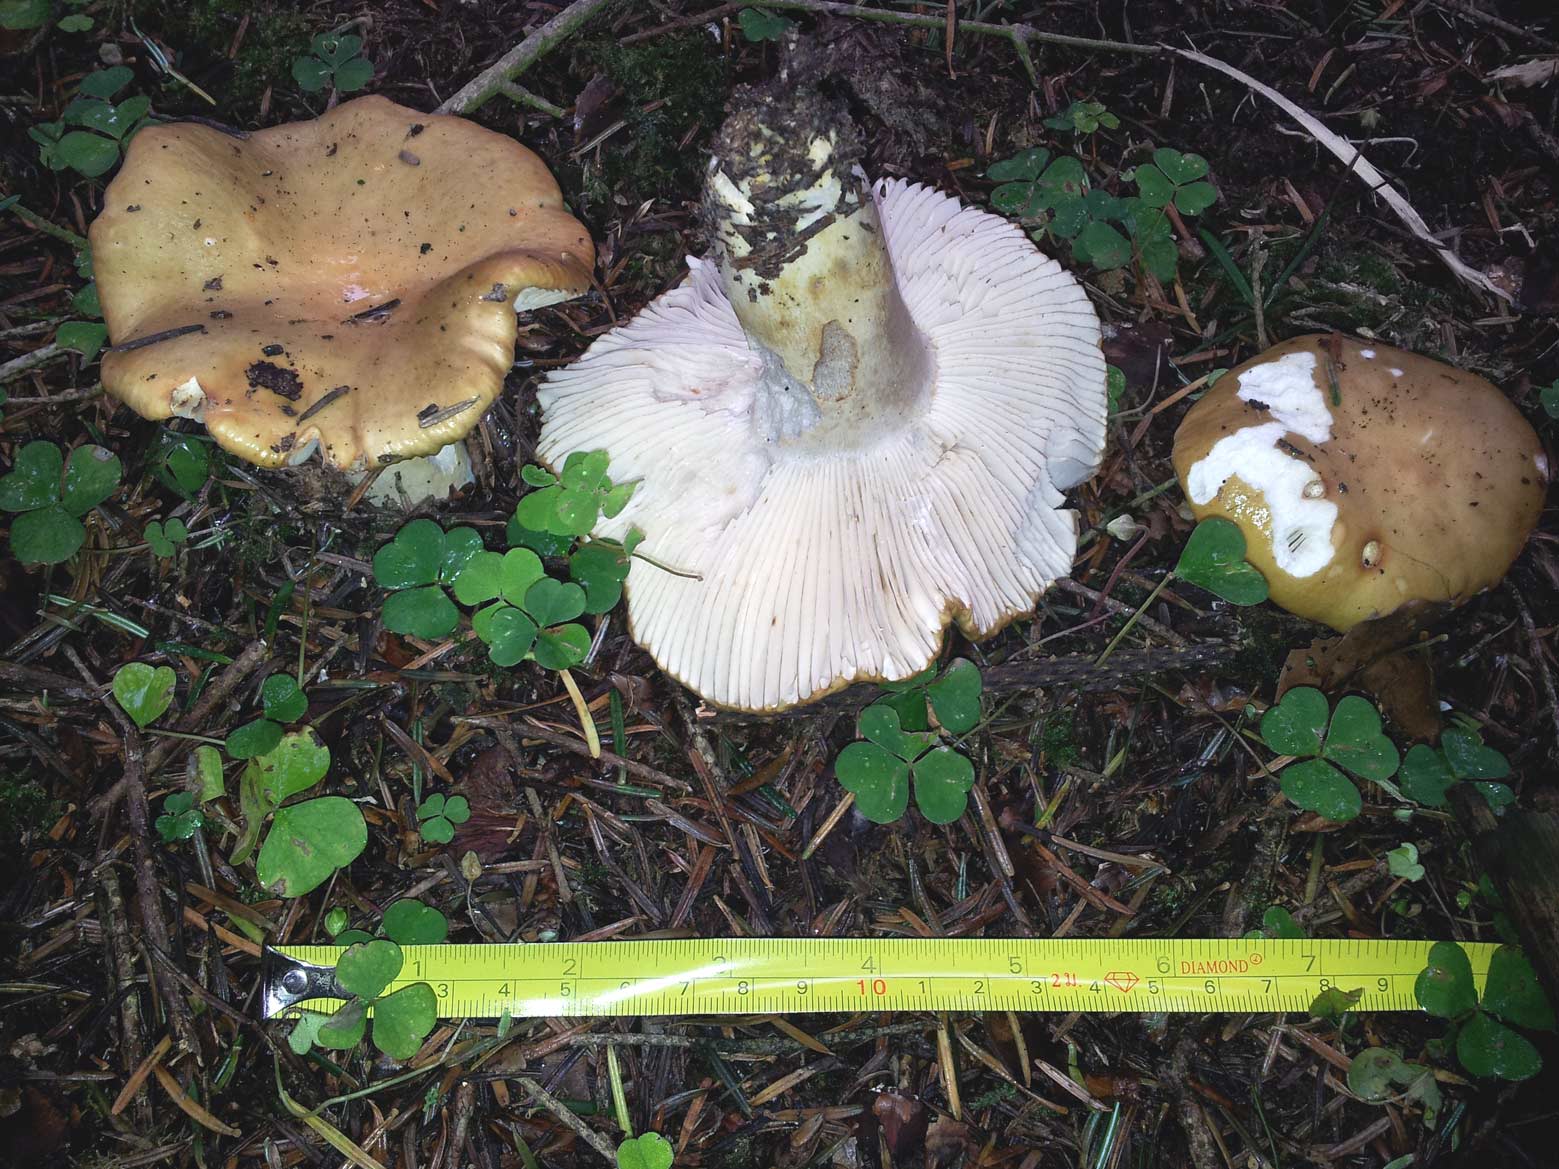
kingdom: Fungi
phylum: Basidiomycota
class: Agaricomycetes
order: Russulales
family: Russulaceae
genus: Russula
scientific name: Russula ochroleuca
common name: okkergul skørhat
